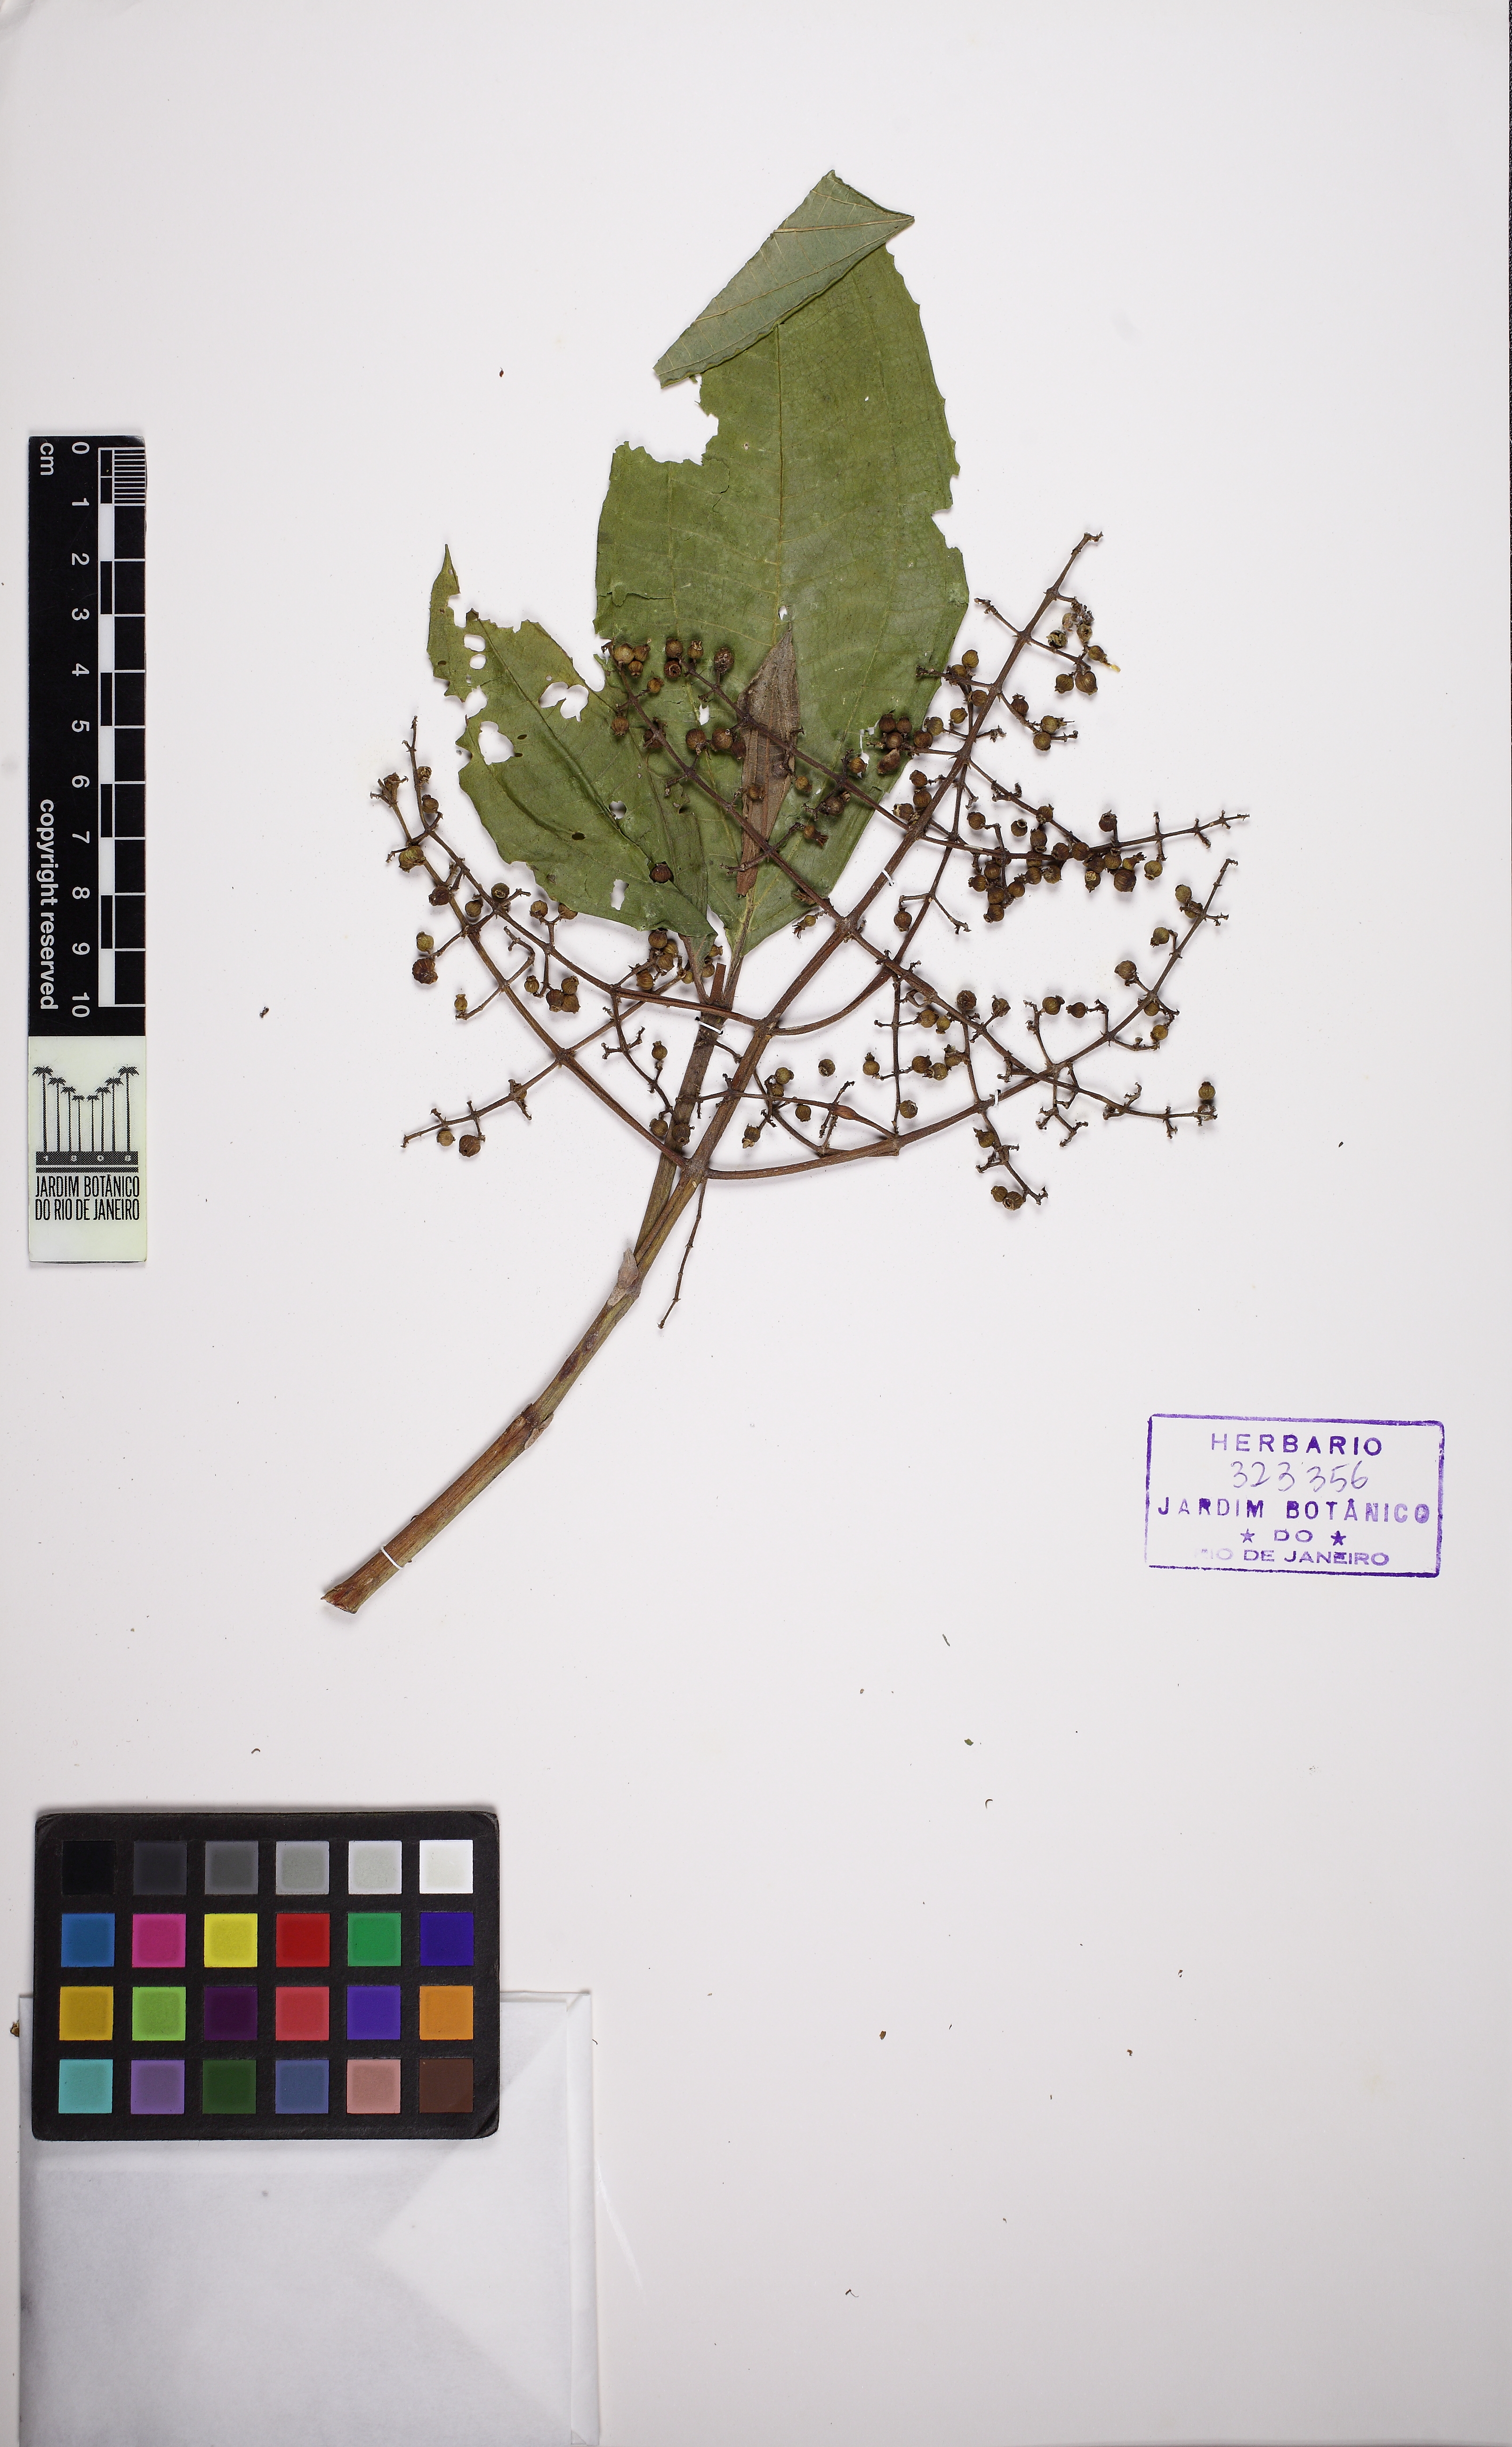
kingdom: Plantae
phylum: Tracheophyta
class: Magnoliopsida
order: Myrtales
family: Melastomataceae
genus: Miconia
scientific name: Miconia prasina
